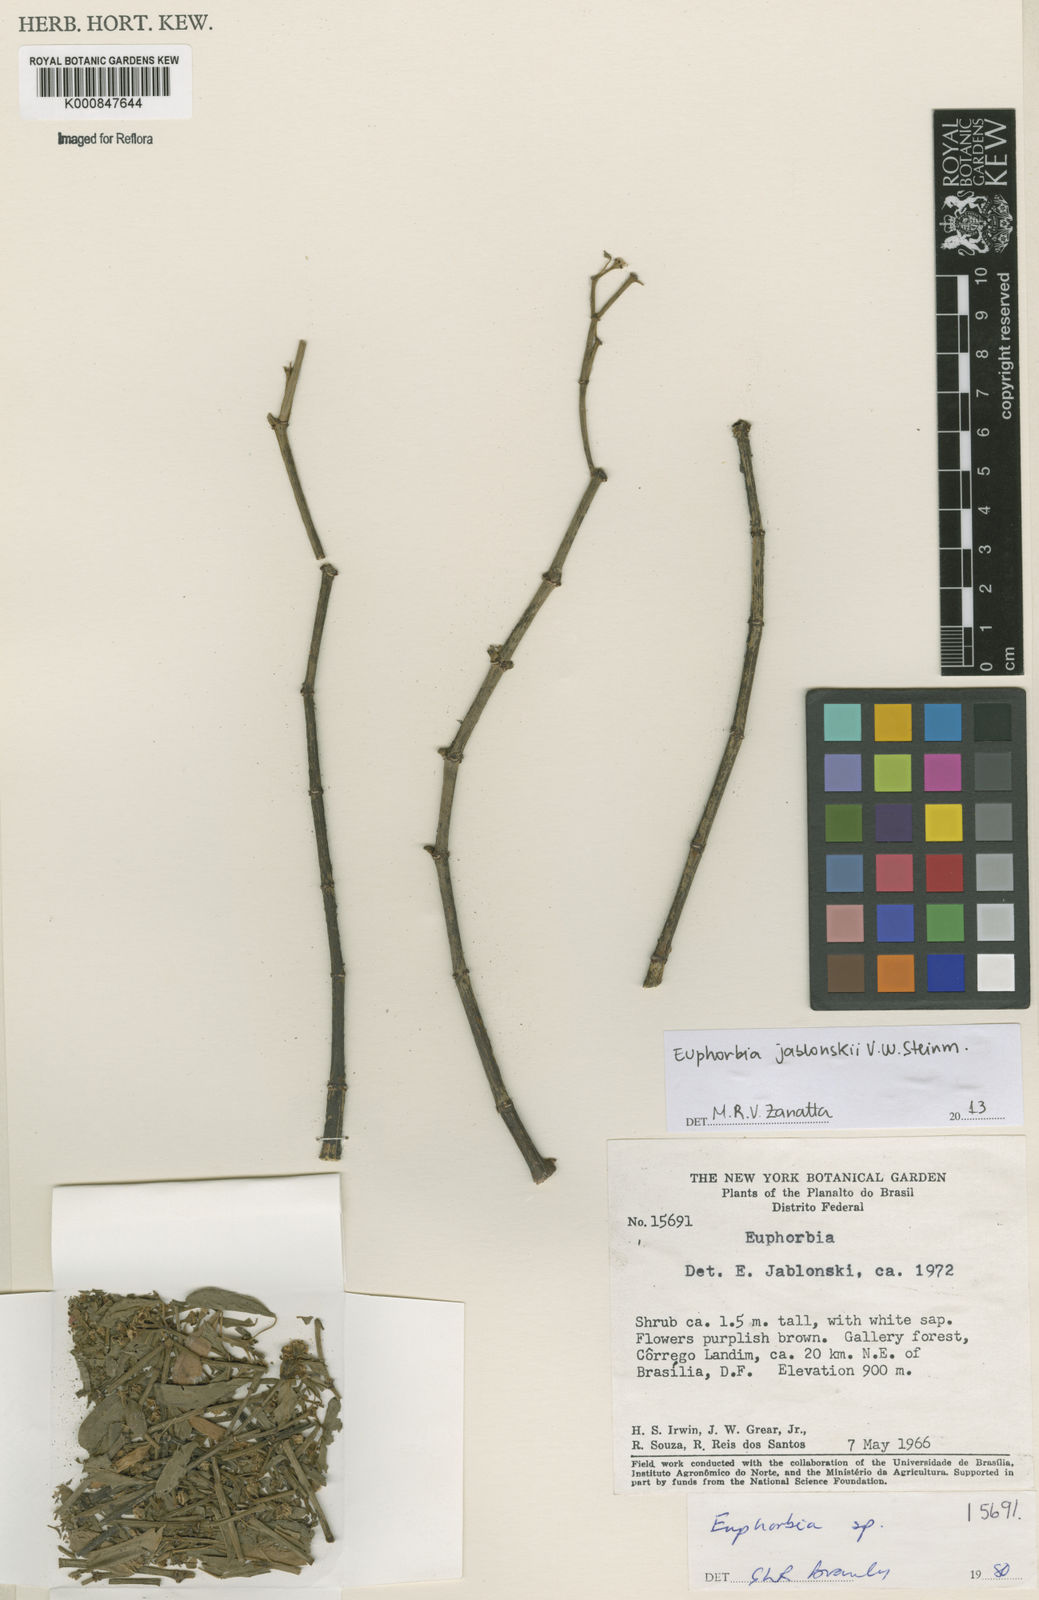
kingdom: Plantae
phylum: Tracheophyta
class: Magnoliopsida
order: Malpighiales
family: Euphorbiaceae
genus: Euphorbia
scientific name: Euphorbia jablonskii
